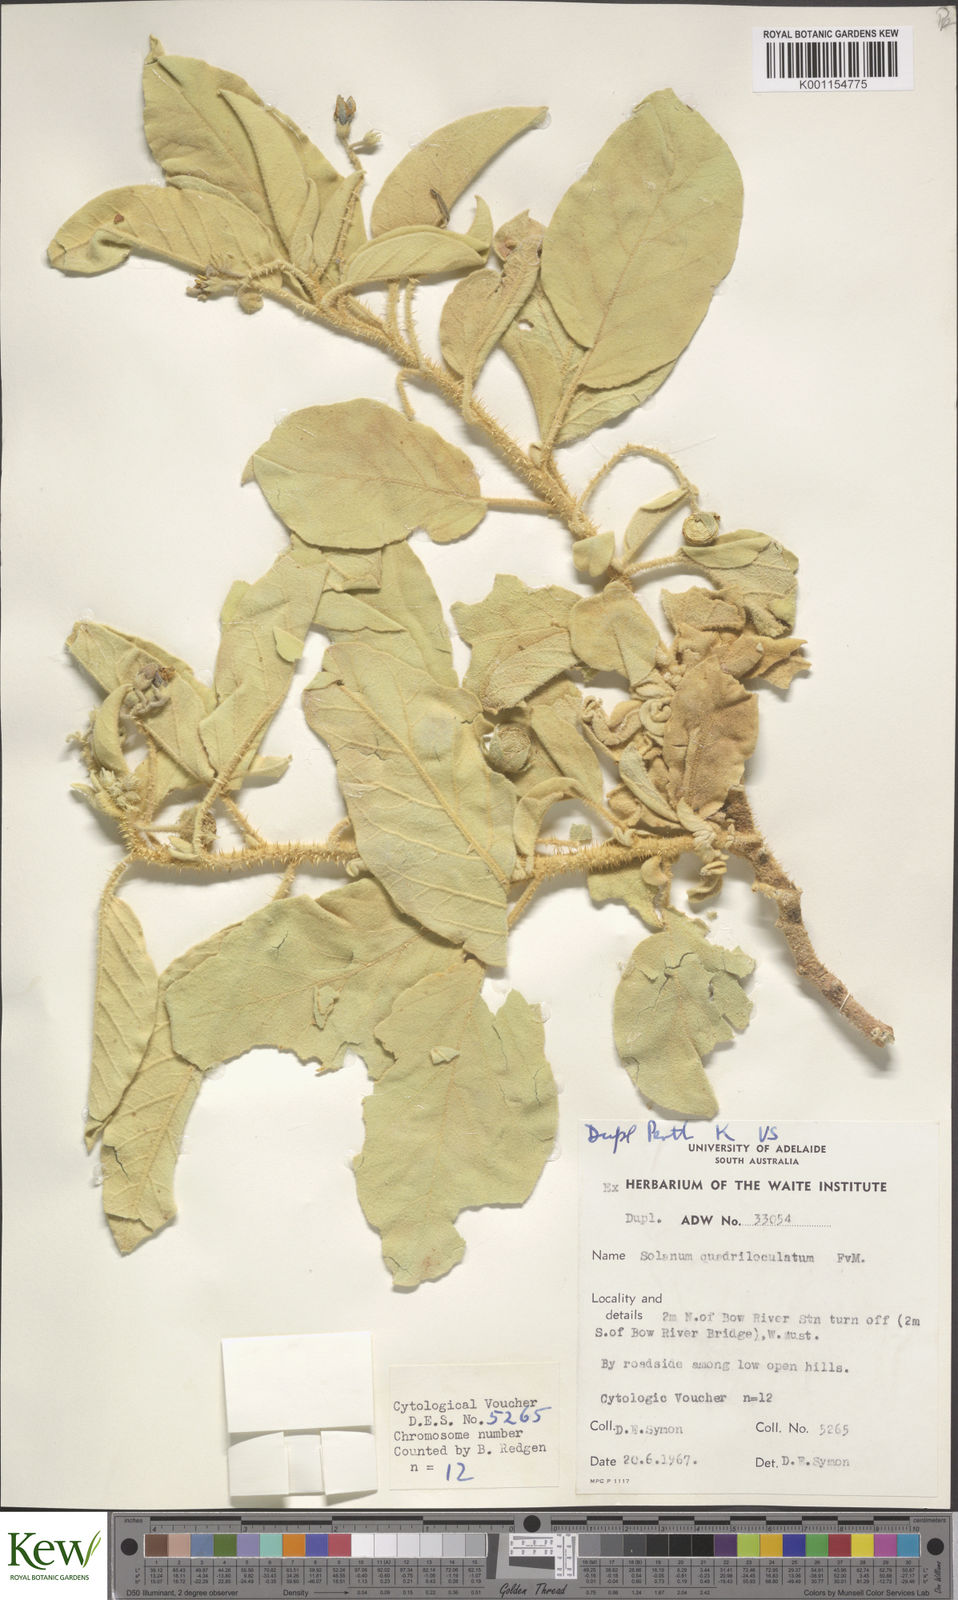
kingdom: Plantae
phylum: Tracheophyta
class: Magnoliopsida
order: Solanales
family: Solanaceae
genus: Solanum
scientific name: Solanum quadriloculatum
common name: Wild tomato
